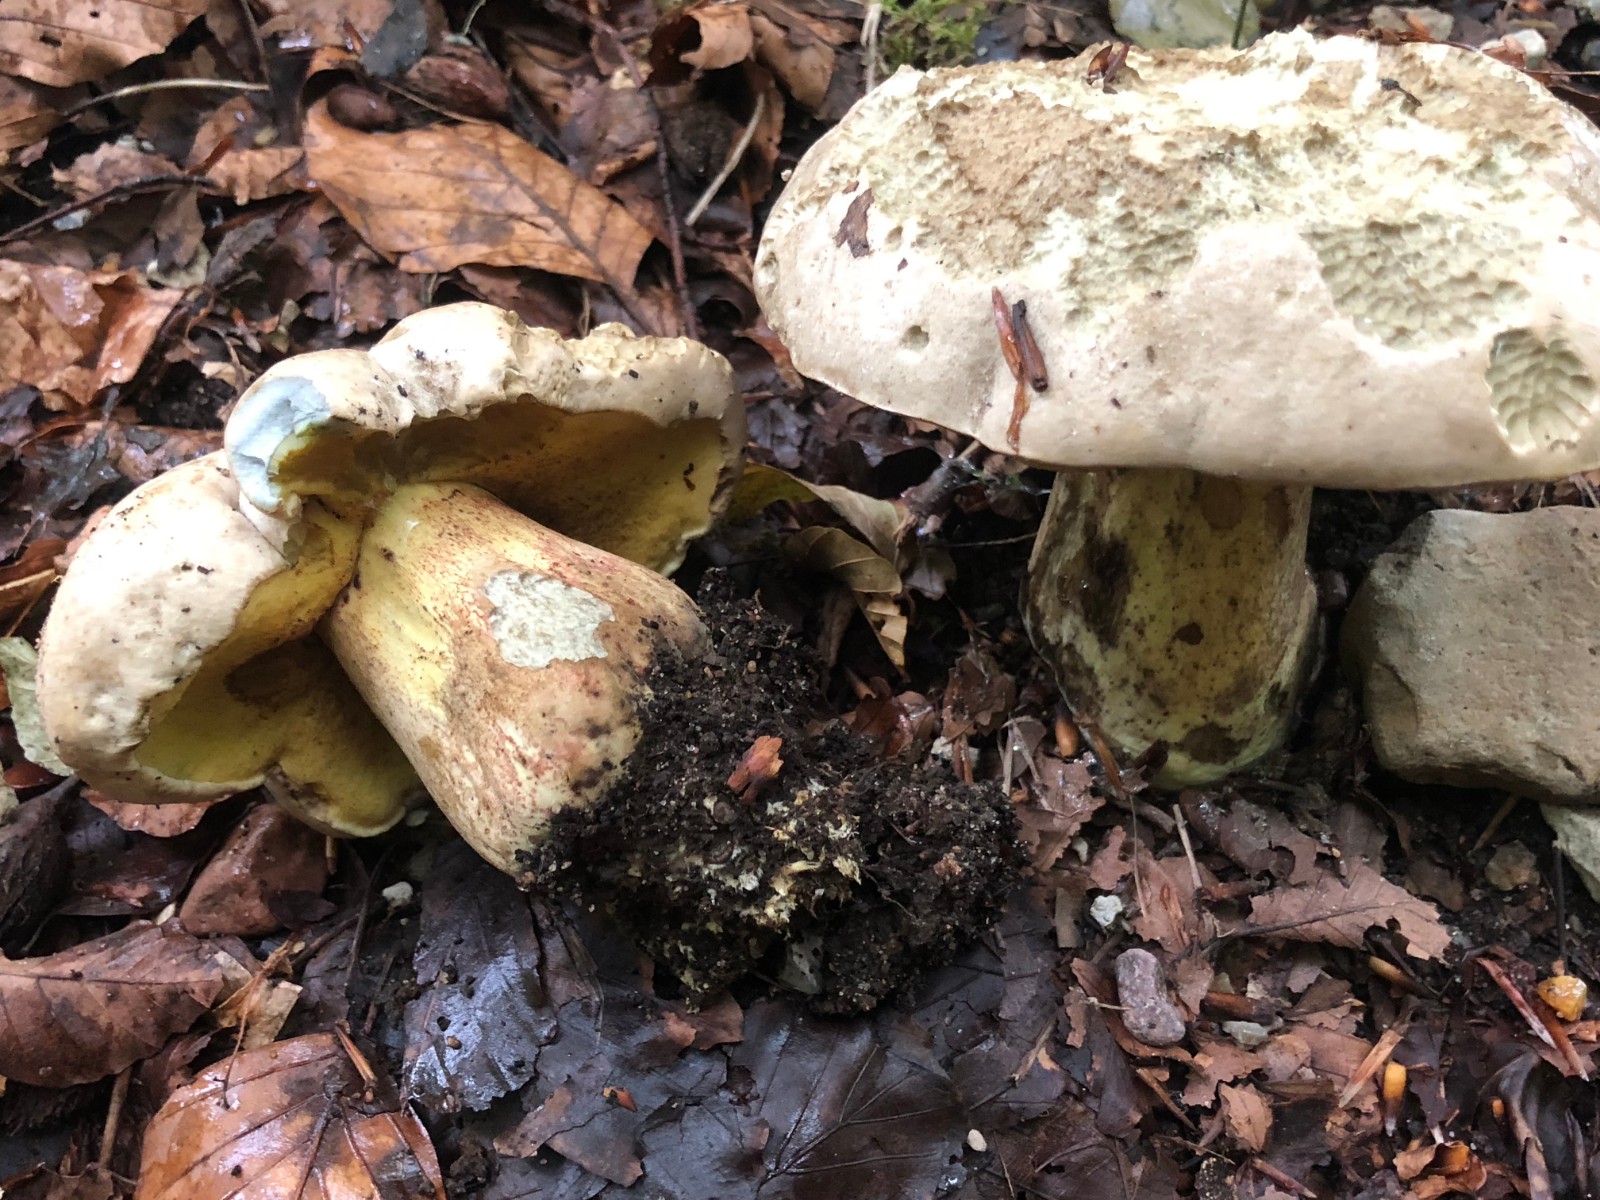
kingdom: Fungi
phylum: Basidiomycota
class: Agaricomycetes
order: Boletales
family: Boletaceae
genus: Caloboletus
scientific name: Caloboletus radicans
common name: rod-rørhat
